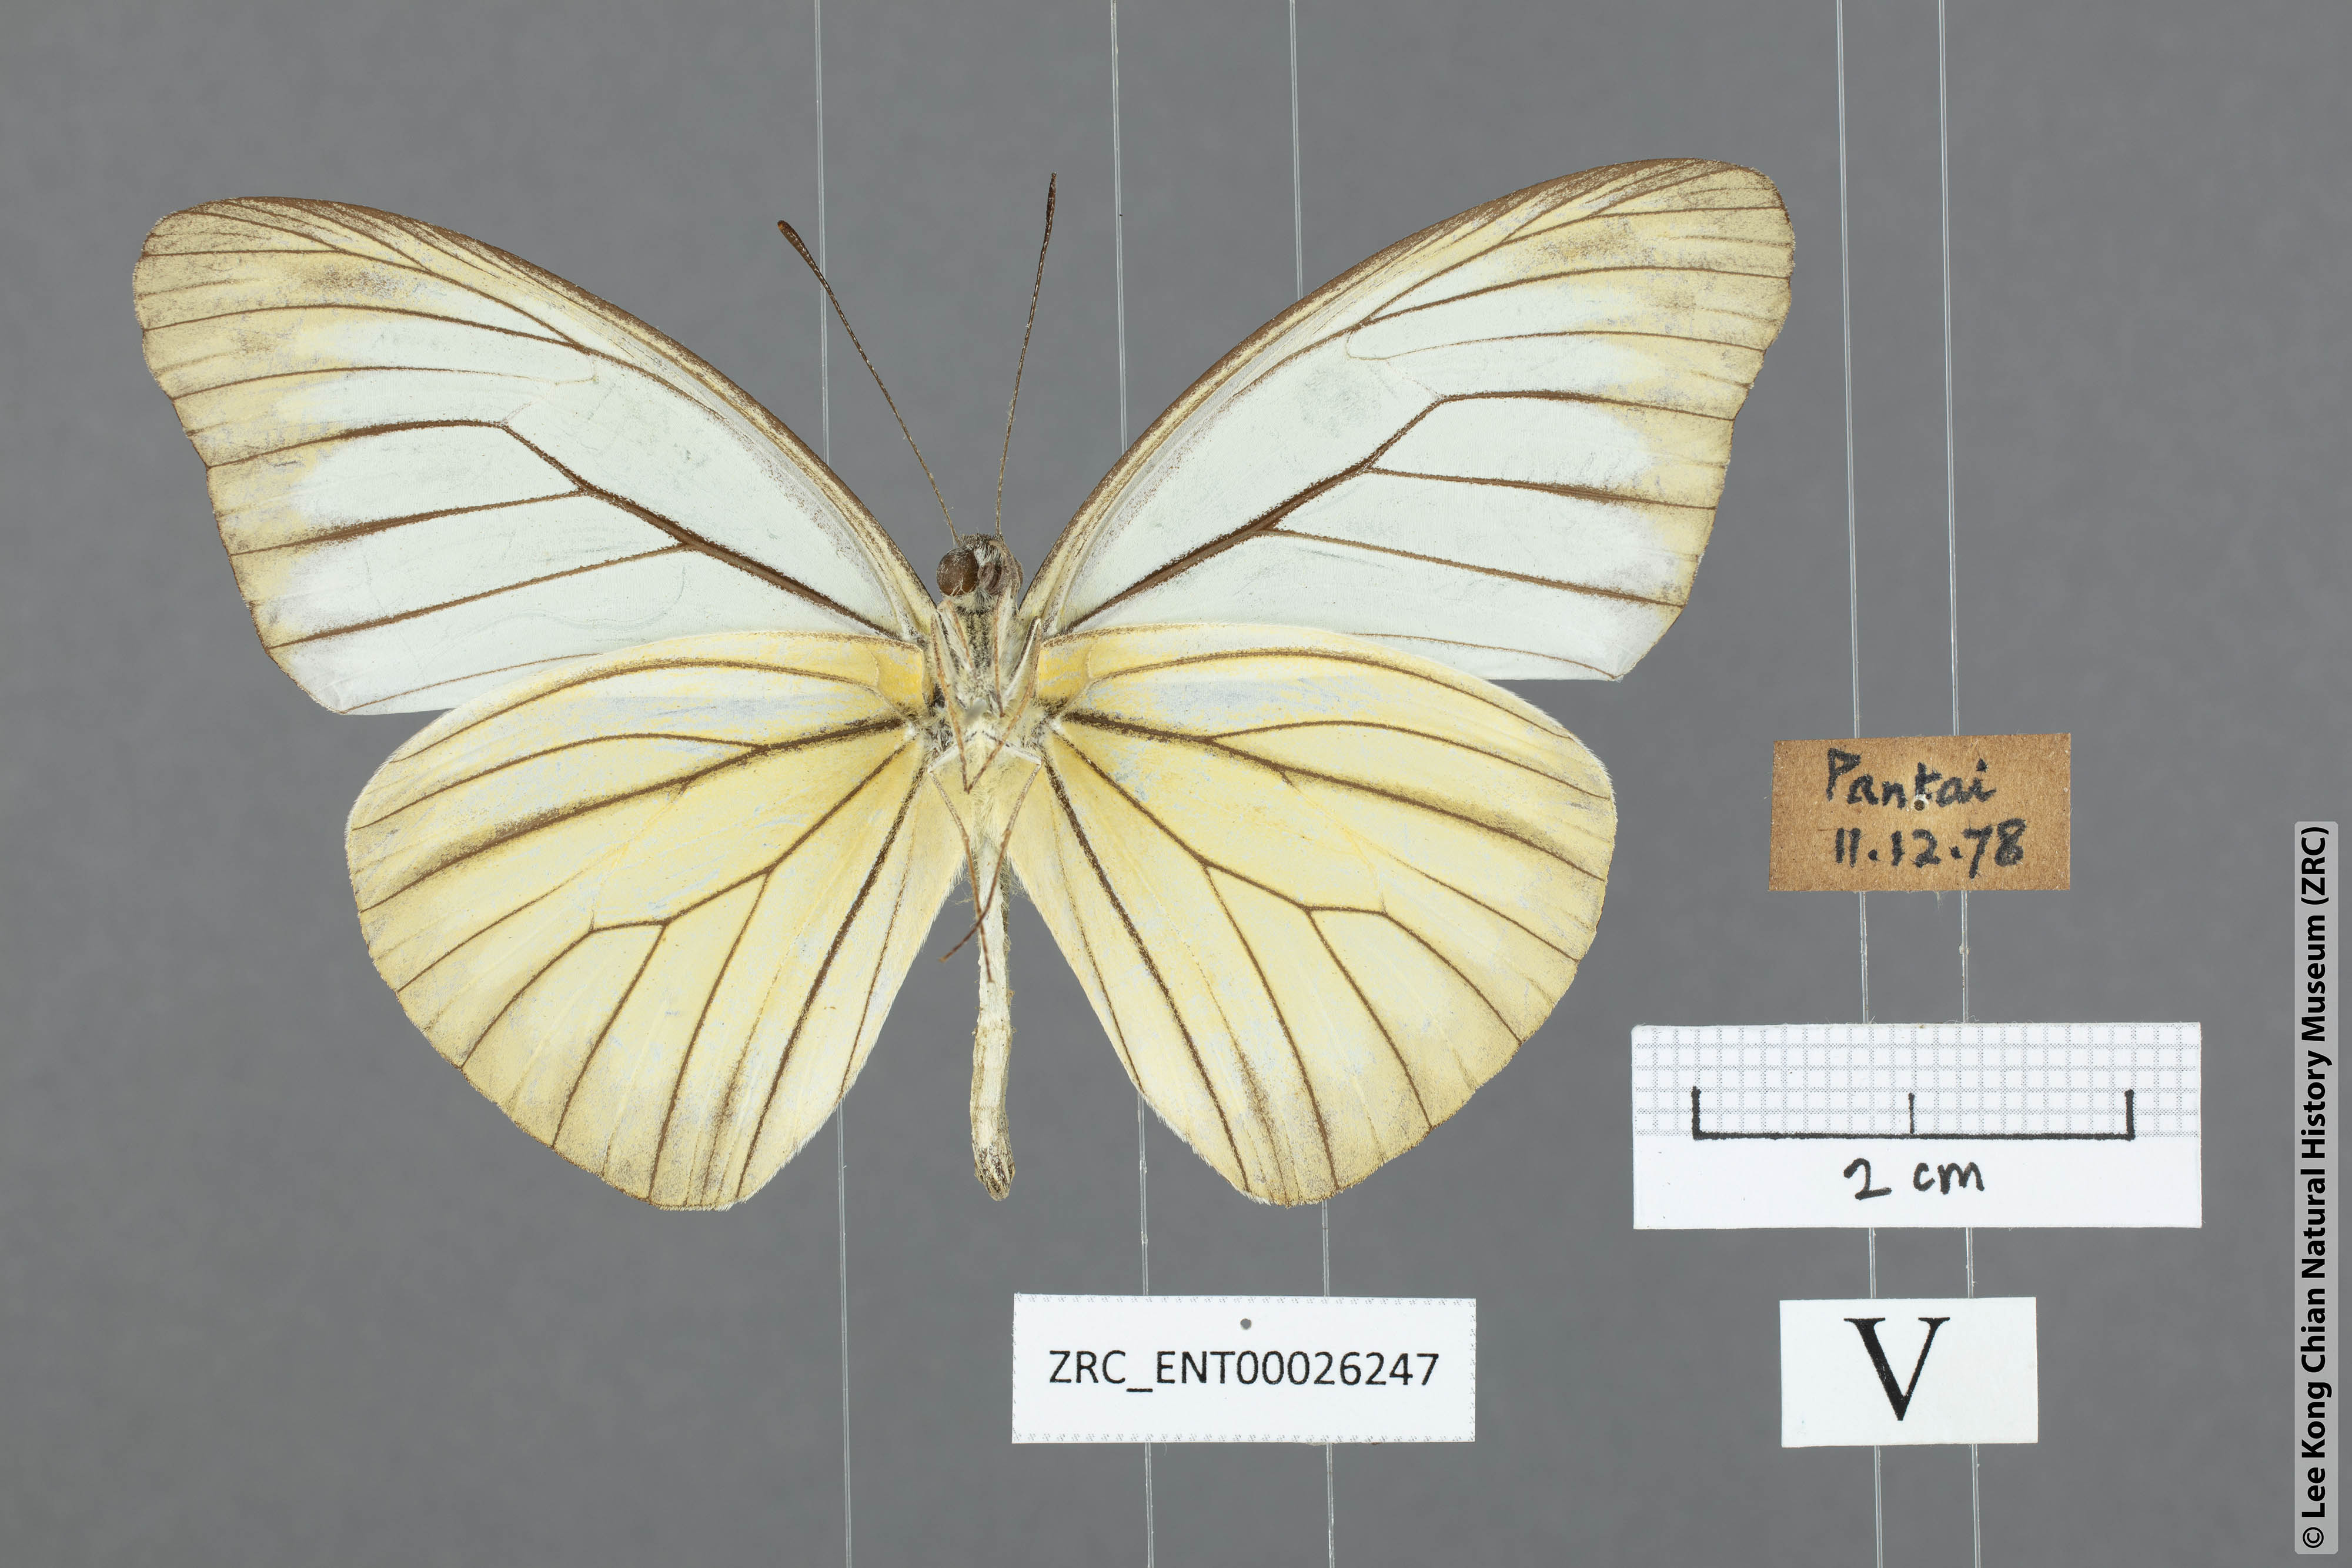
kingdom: Animalia
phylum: Arthropoda
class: Insecta
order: Lepidoptera
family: Pieridae
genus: Pareronia
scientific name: Pareronia valeria
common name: Common wanderer?
